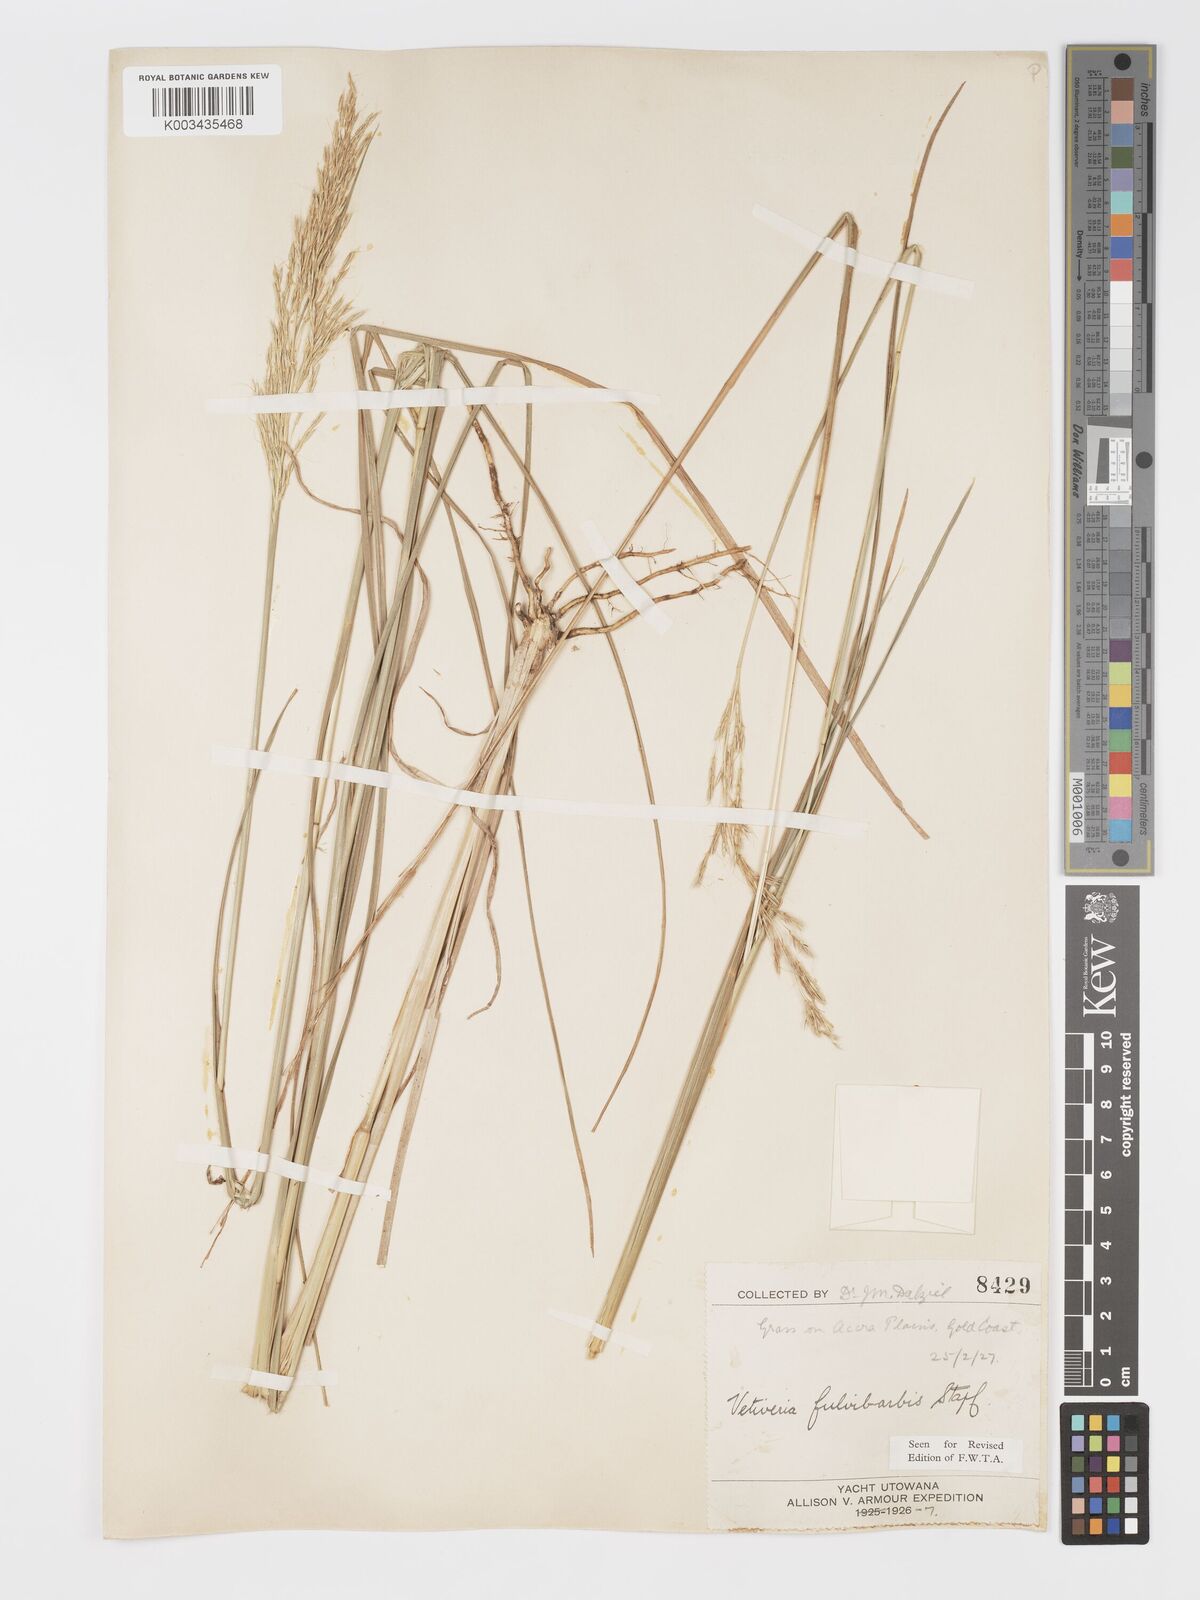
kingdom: Plantae
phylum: Tracheophyta
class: Liliopsida
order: Poales
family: Poaceae
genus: Chrysopogon
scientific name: Chrysopogon fulvibarbis
